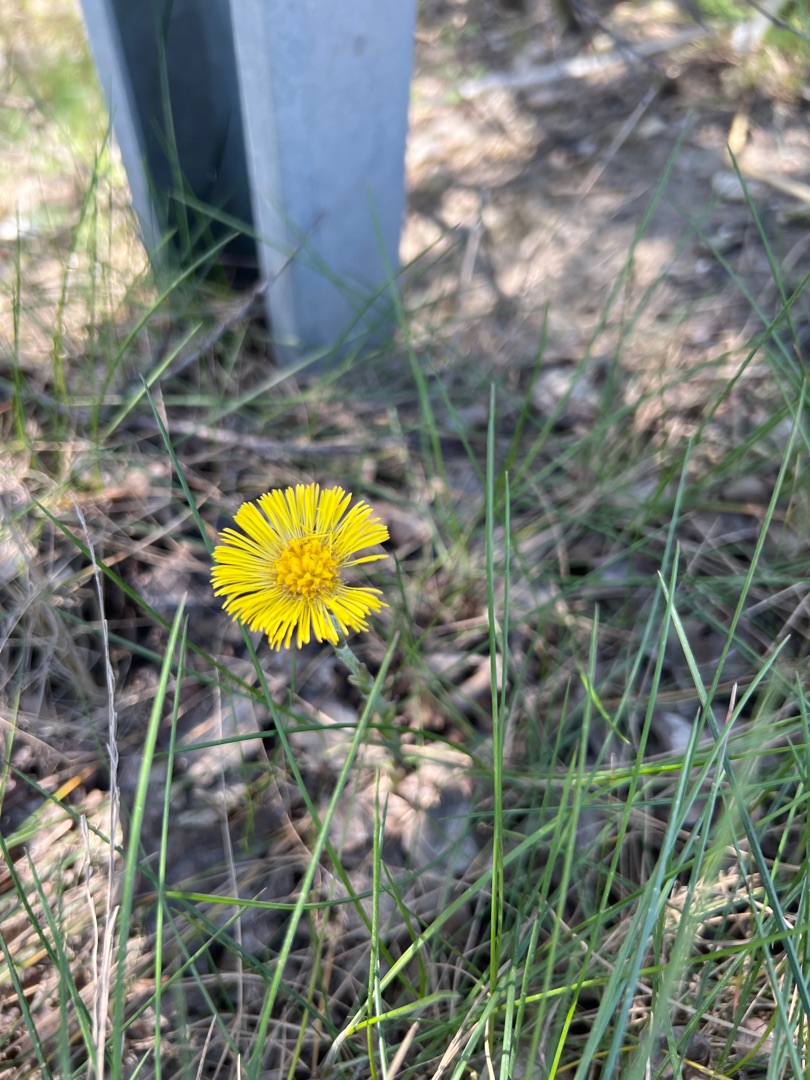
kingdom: Plantae
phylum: Tracheophyta
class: Magnoliopsida
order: Asterales
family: Asteraceae
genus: Tussilago
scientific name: Tussilago farfara
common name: Følfod
